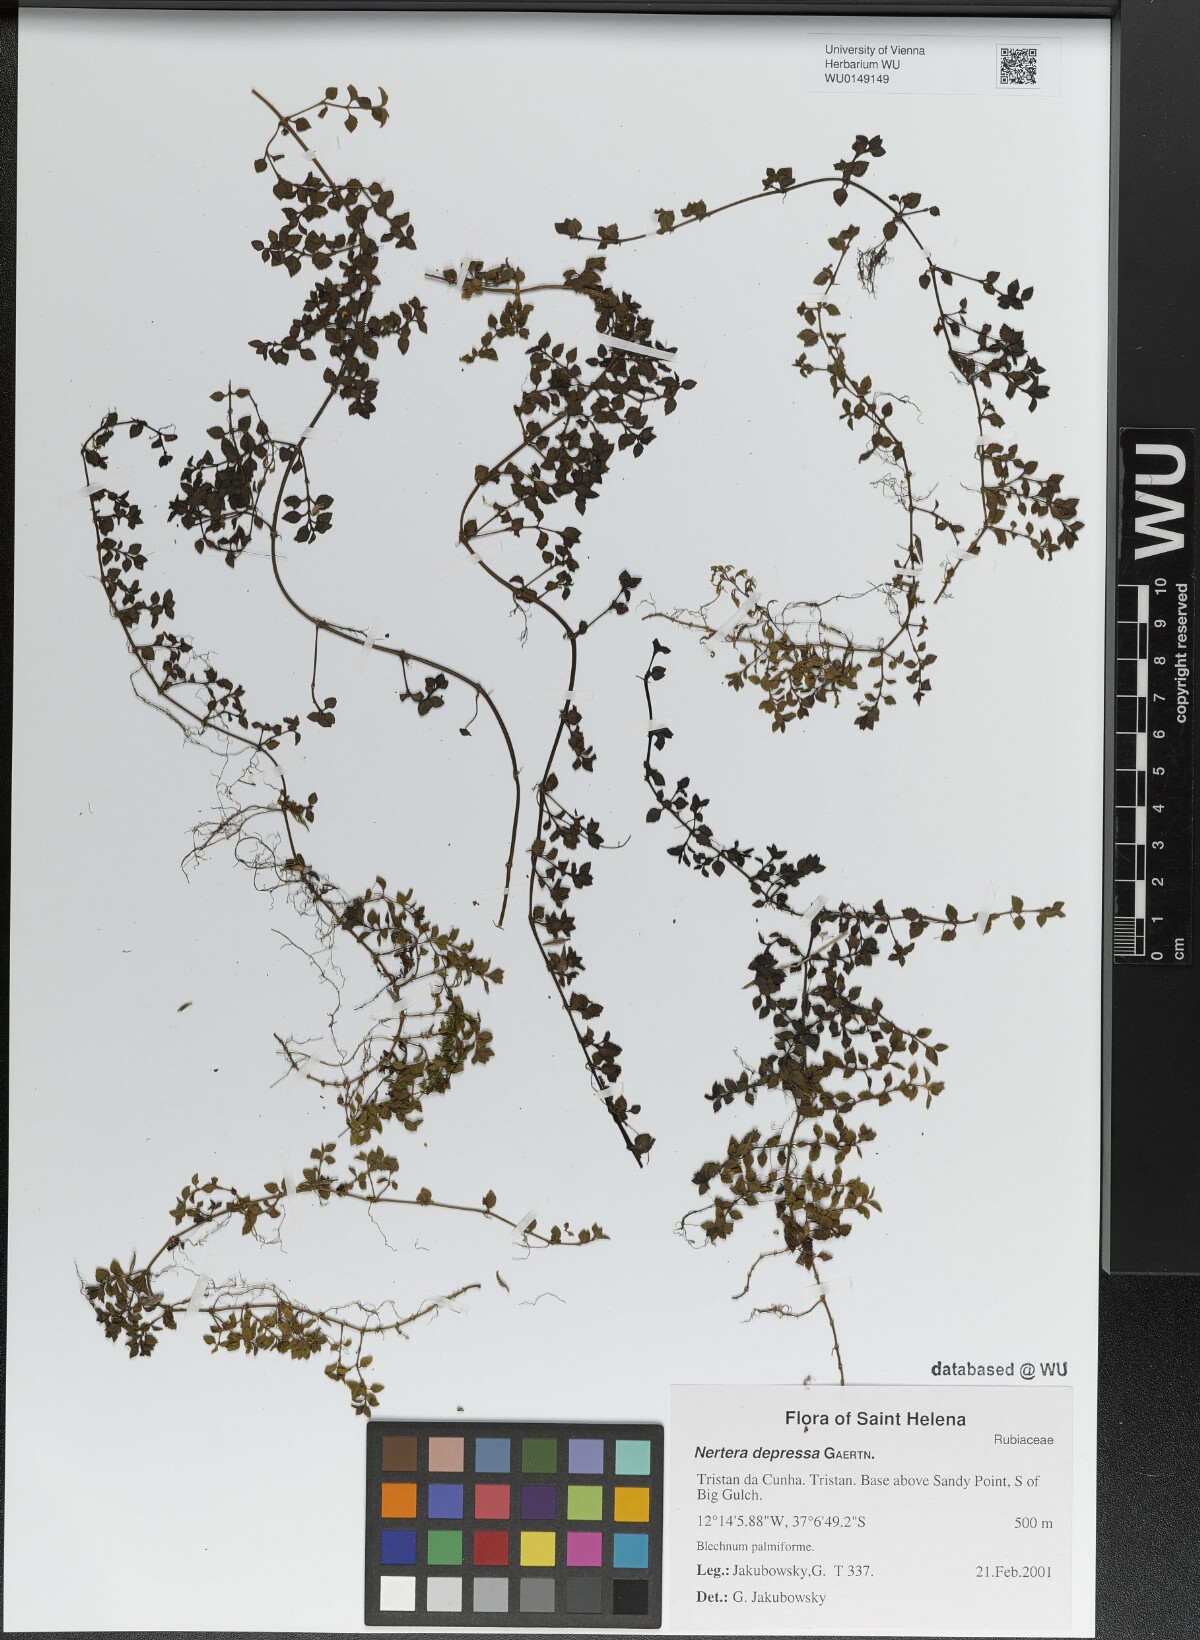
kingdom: Plantae
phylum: Tracheophyta
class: Magnoliopsida
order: Gentianales
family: Rubiaceae
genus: Nertera
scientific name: Nertera granadensis
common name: Beadplant
